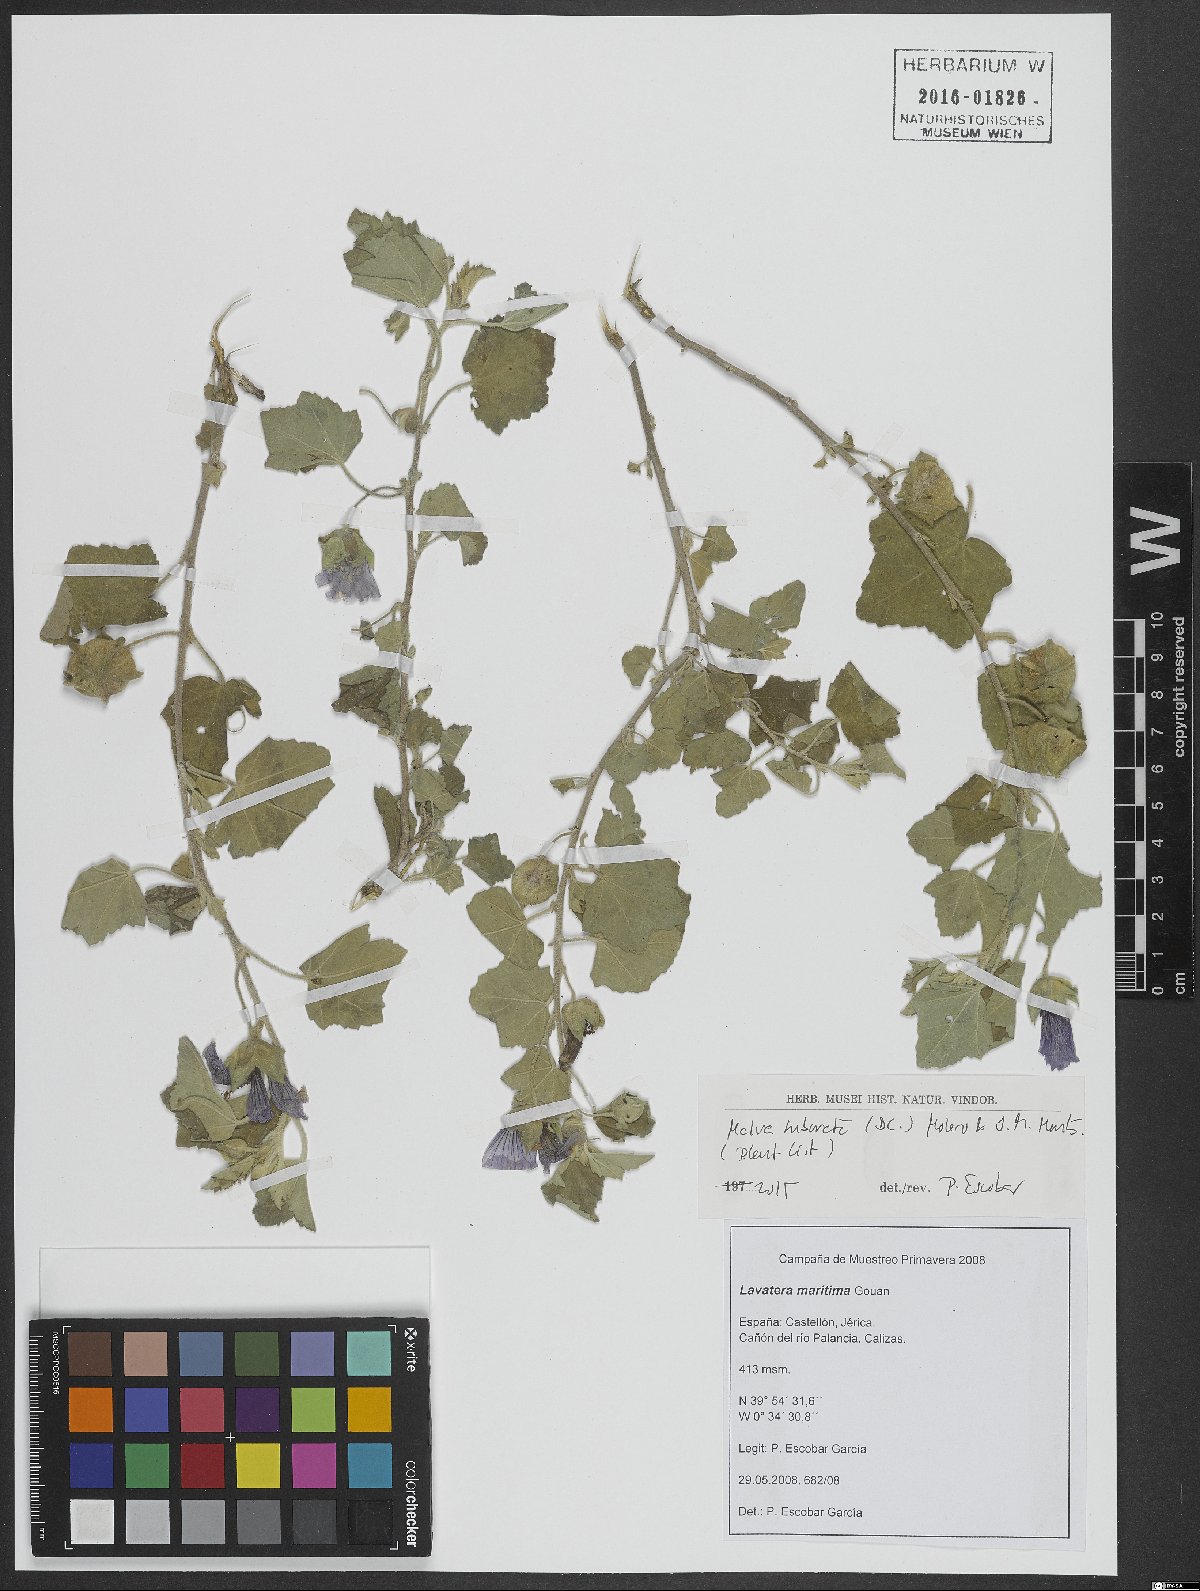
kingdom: Plantae
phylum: Tracheophyta
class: Magnoliopsida
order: Malvales
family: Malvaceae
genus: Malva
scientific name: Malva subovata
